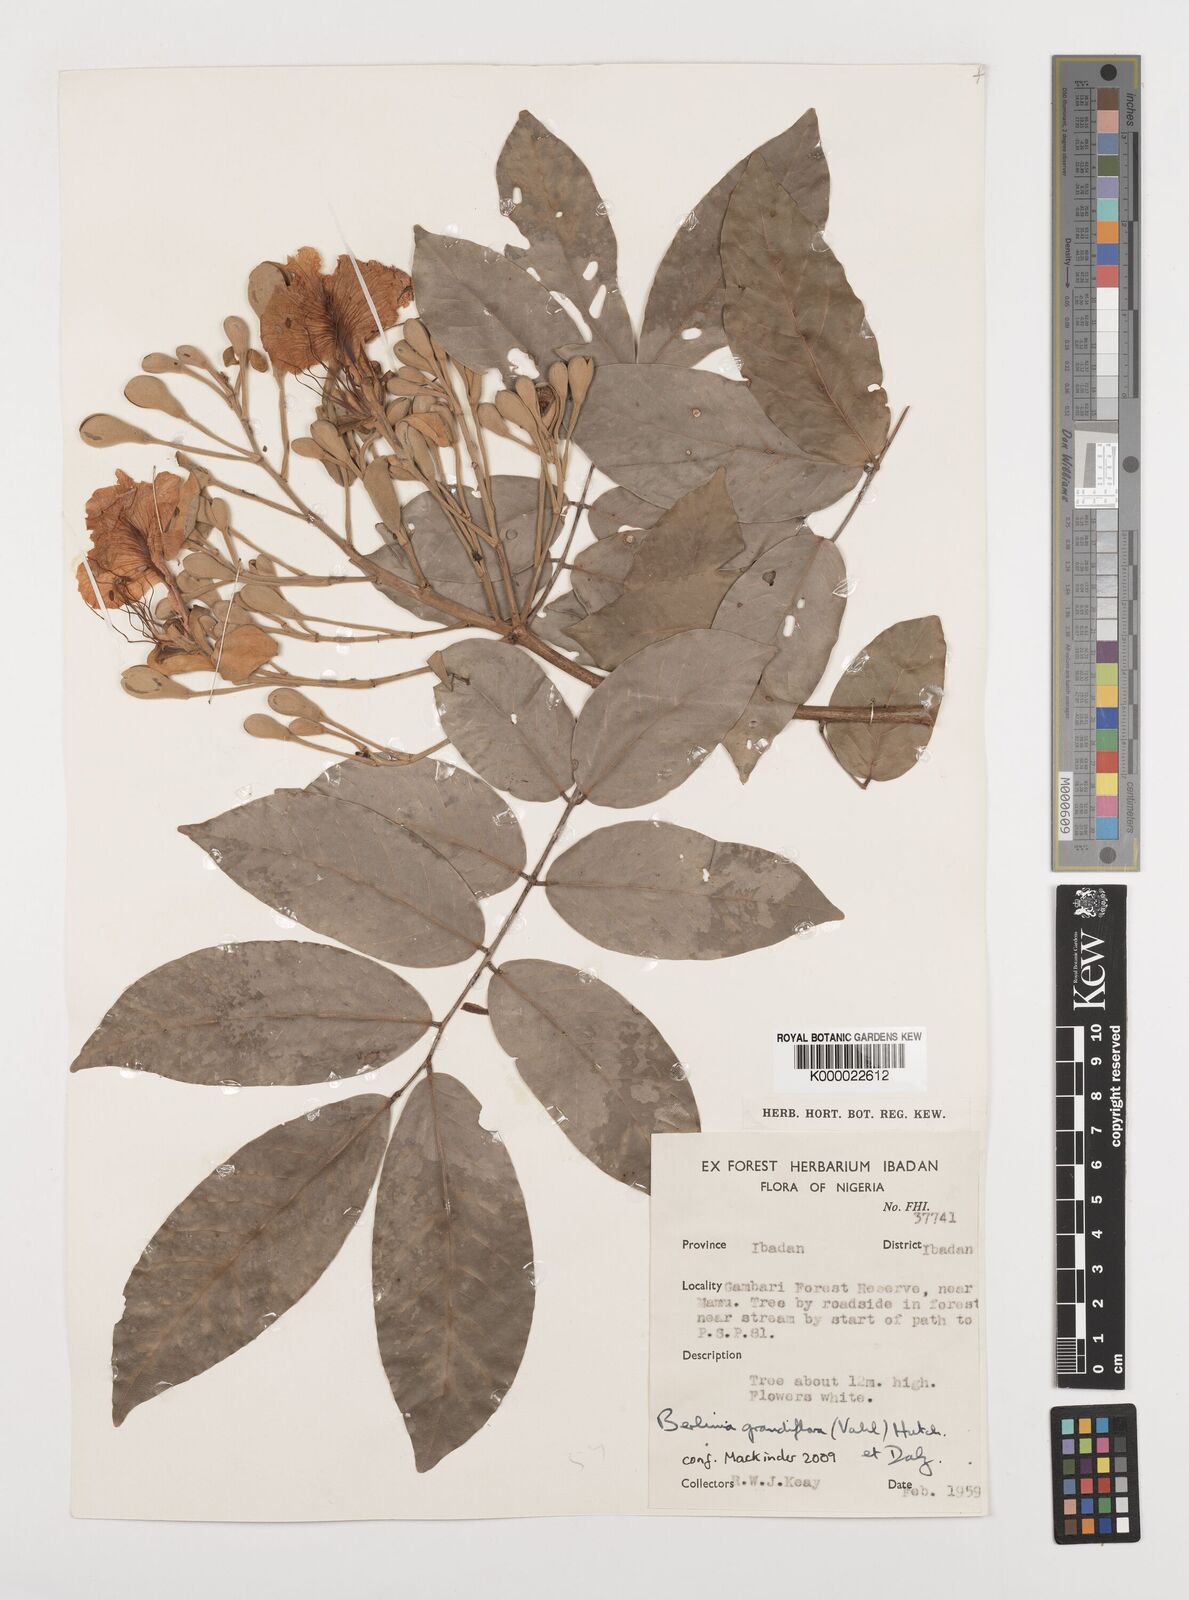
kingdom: Plantae
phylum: Tracheophyta
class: Magnoliopsida
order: Fabales
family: Fabaceae
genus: Berlinia
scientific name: Berlinia grandiflora
